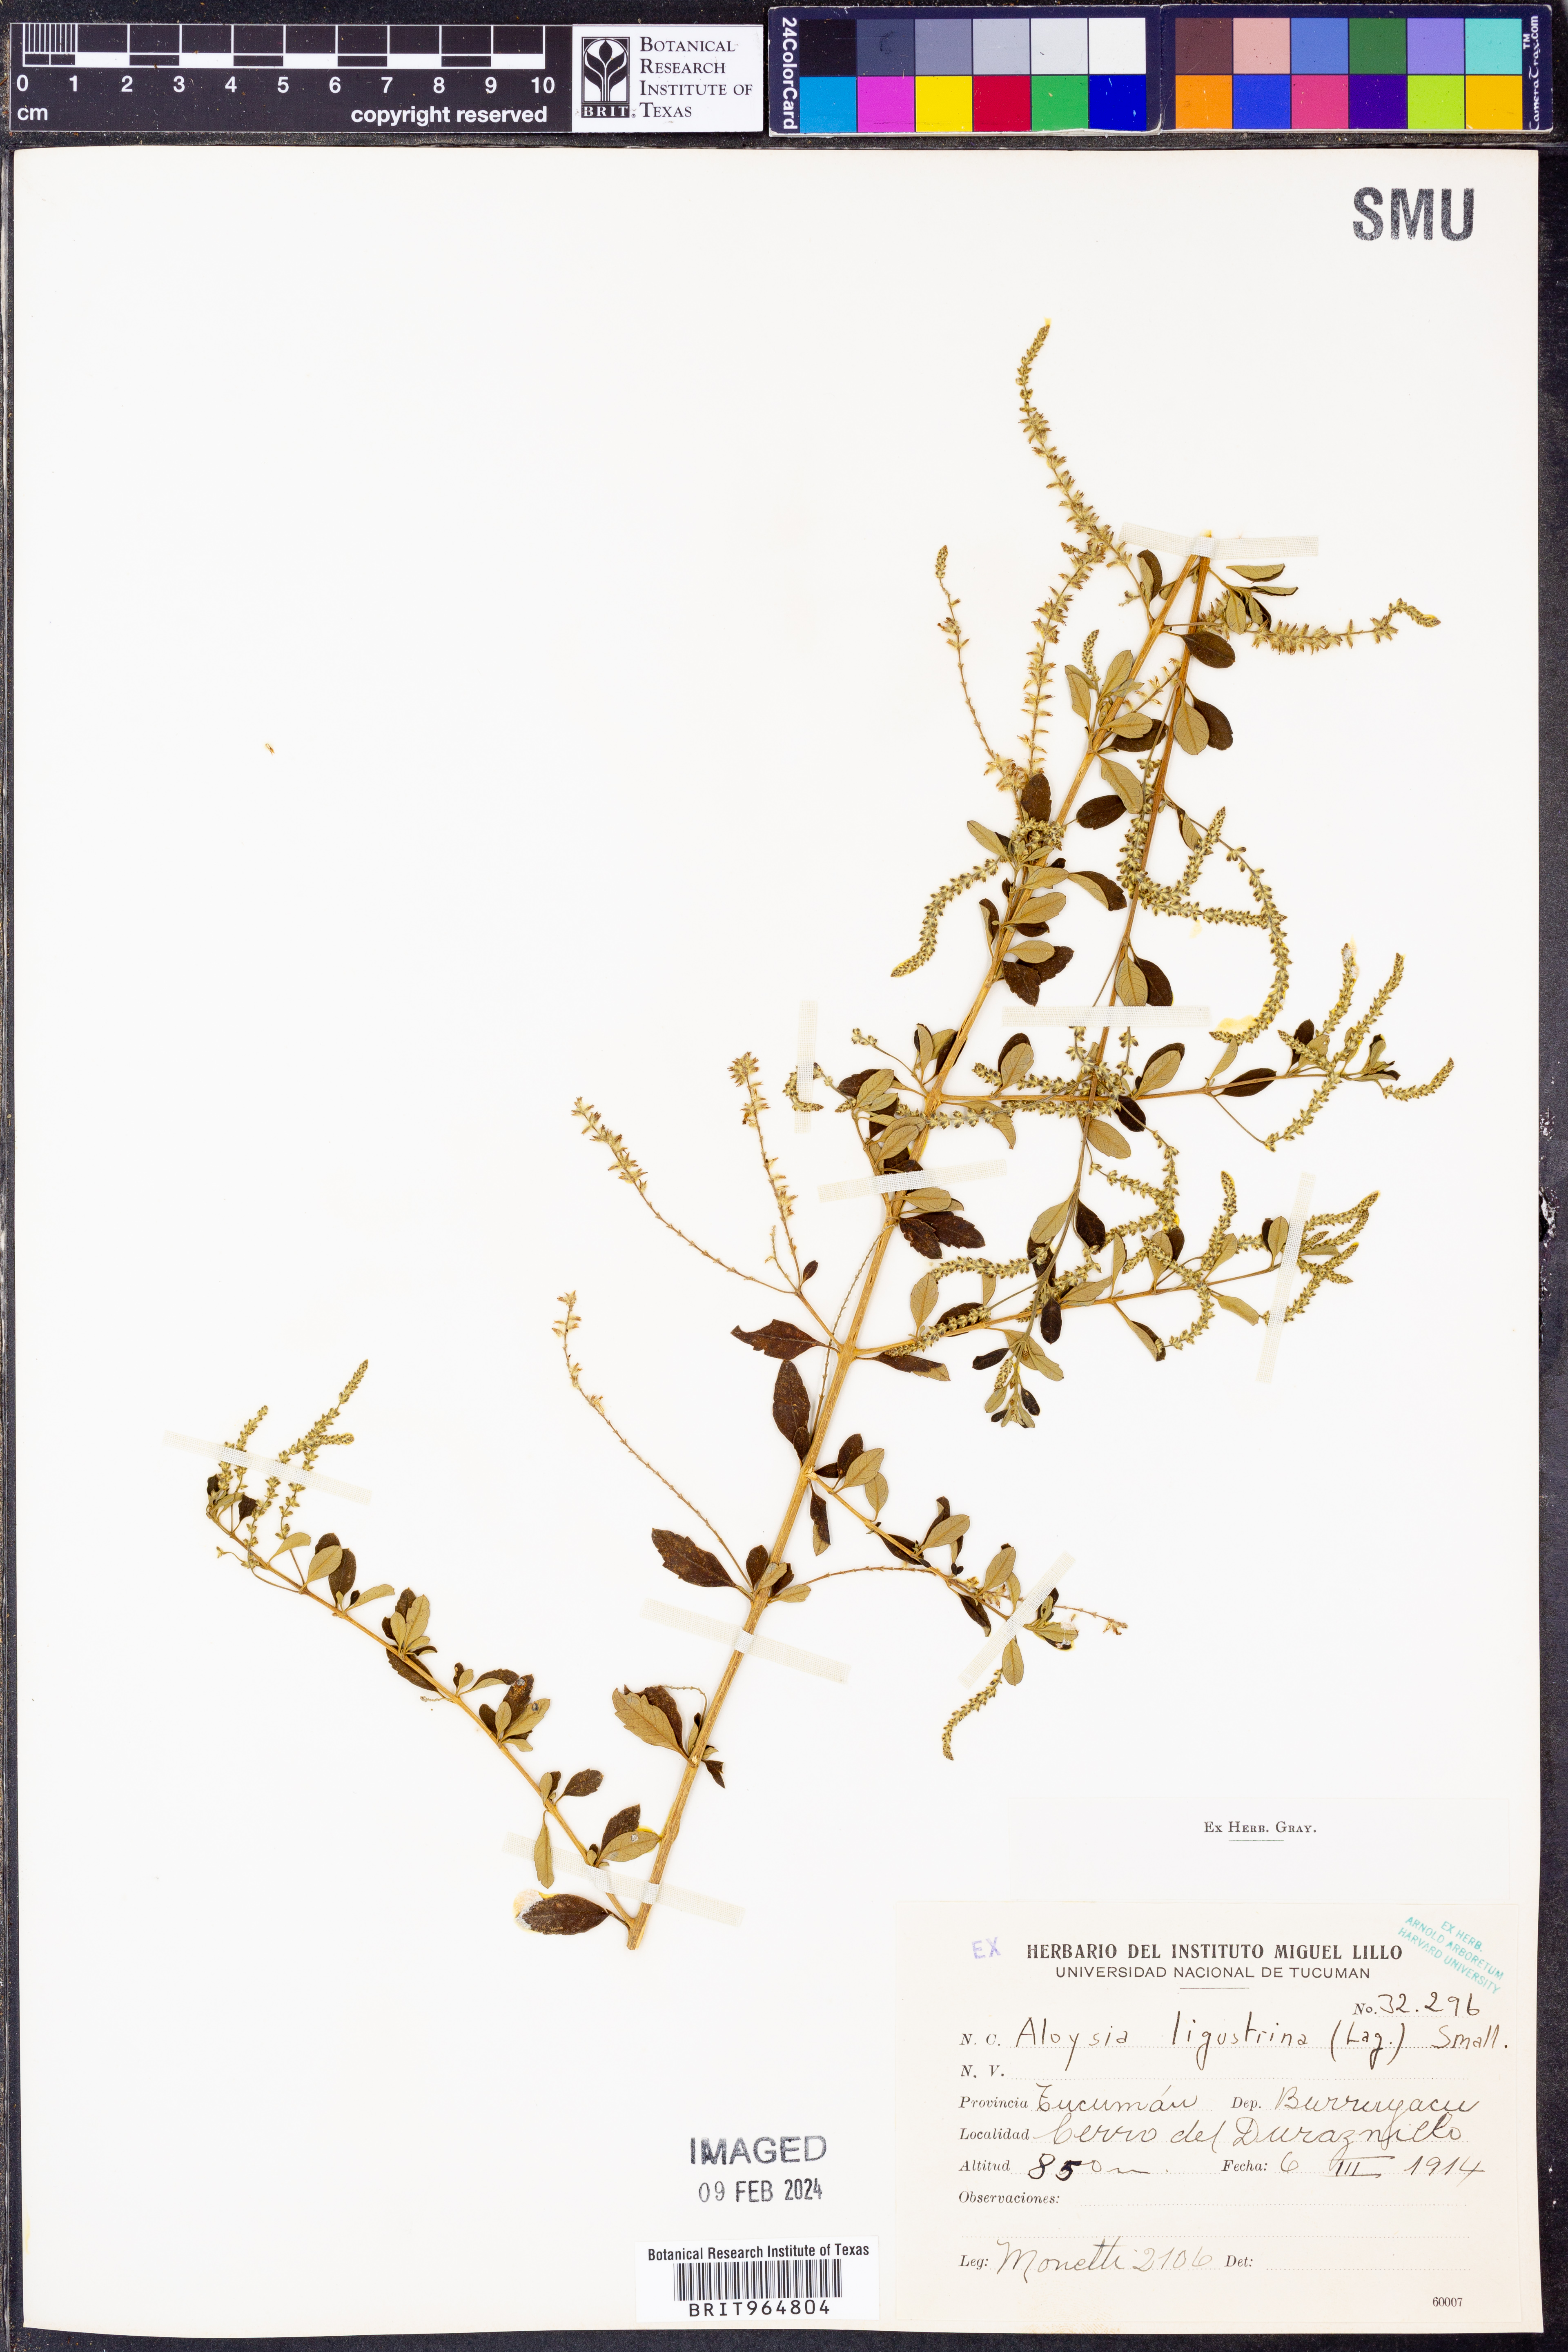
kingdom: Plantae
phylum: Tracheophyta
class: Magnoliopsida
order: Lamiales
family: Verbenaceae
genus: Aloysia
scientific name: Aloysia
